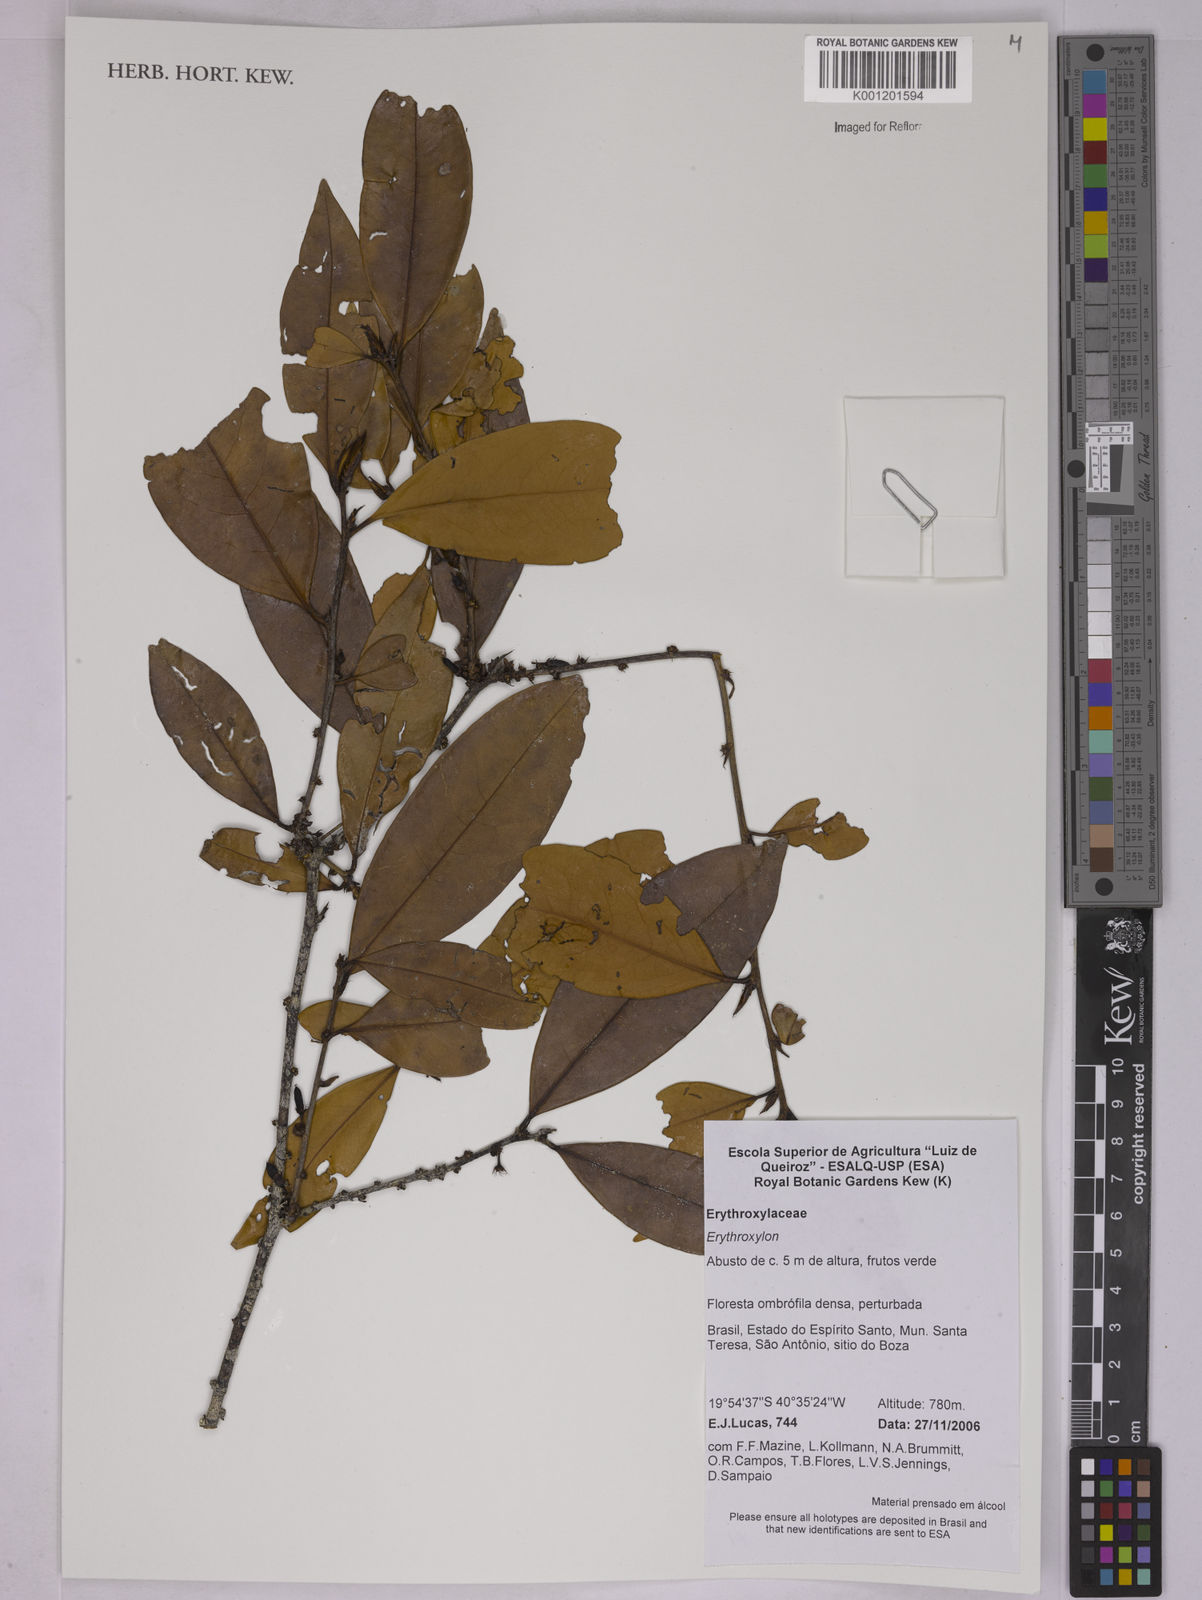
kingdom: Plantae
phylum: Tracheophyta
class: Magnoliopsida
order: Malpighiales
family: Erythroxylaceae
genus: Erythroxylum
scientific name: Erythroxylum
